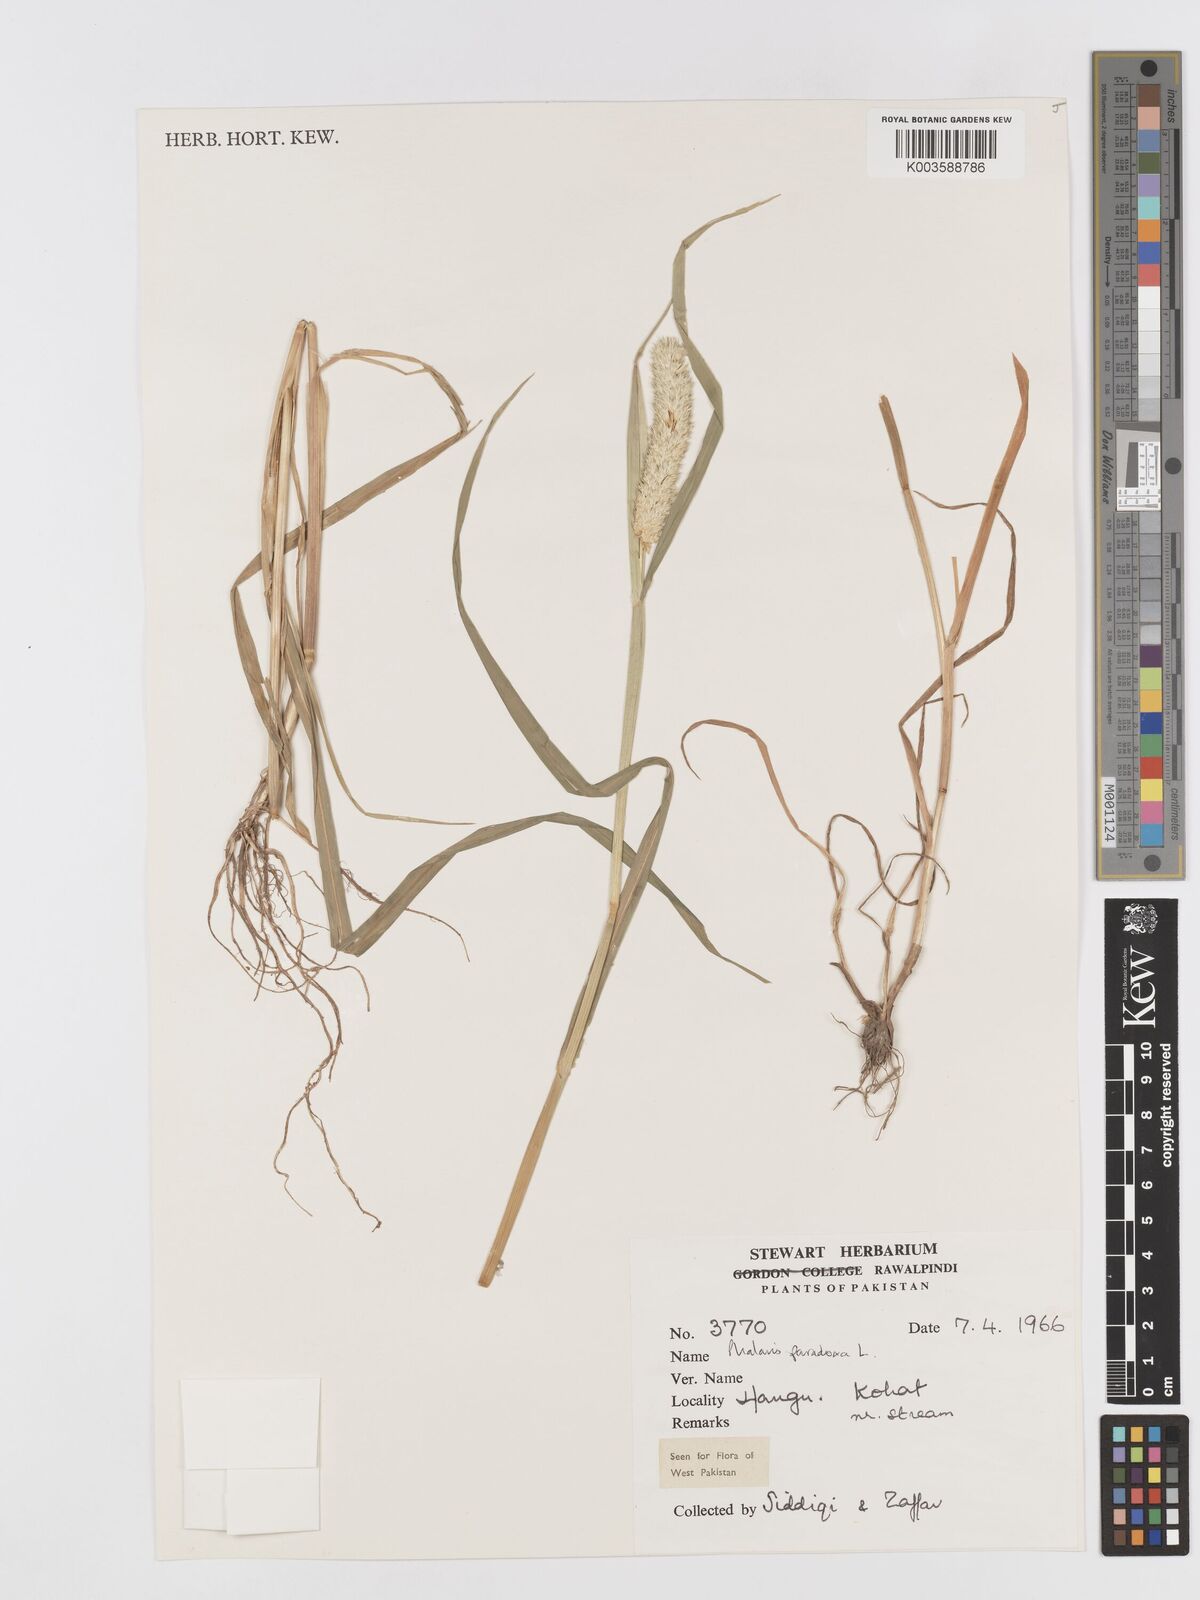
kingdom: Plantae
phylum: Tracheophyta
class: Liliopsida
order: Poales
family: Poaceae
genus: Phalaris
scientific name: Phalaris paradoxa
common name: Awned canary-grass
